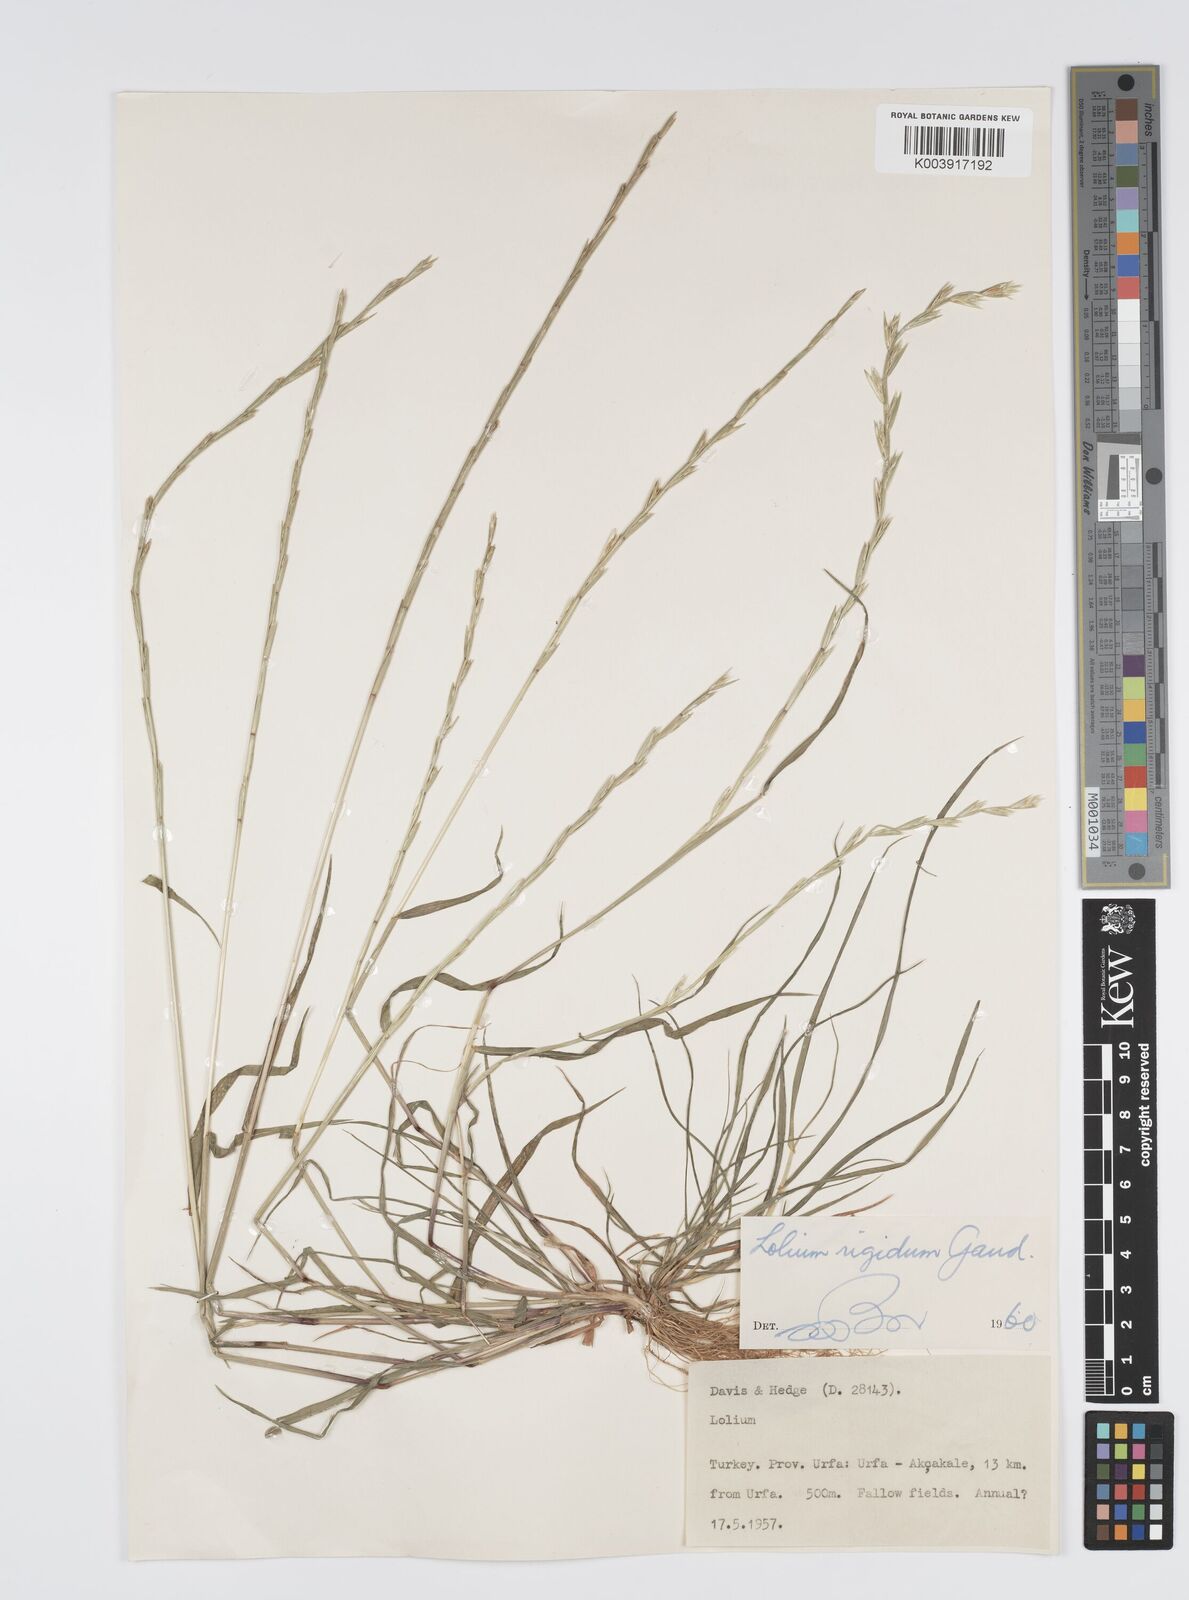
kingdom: Plantae
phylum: Tracheophyta
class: Liliopsida
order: Poales
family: Poaceae
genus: Lolium
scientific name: Lolium rigidum
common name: Wimmera ryegrass
